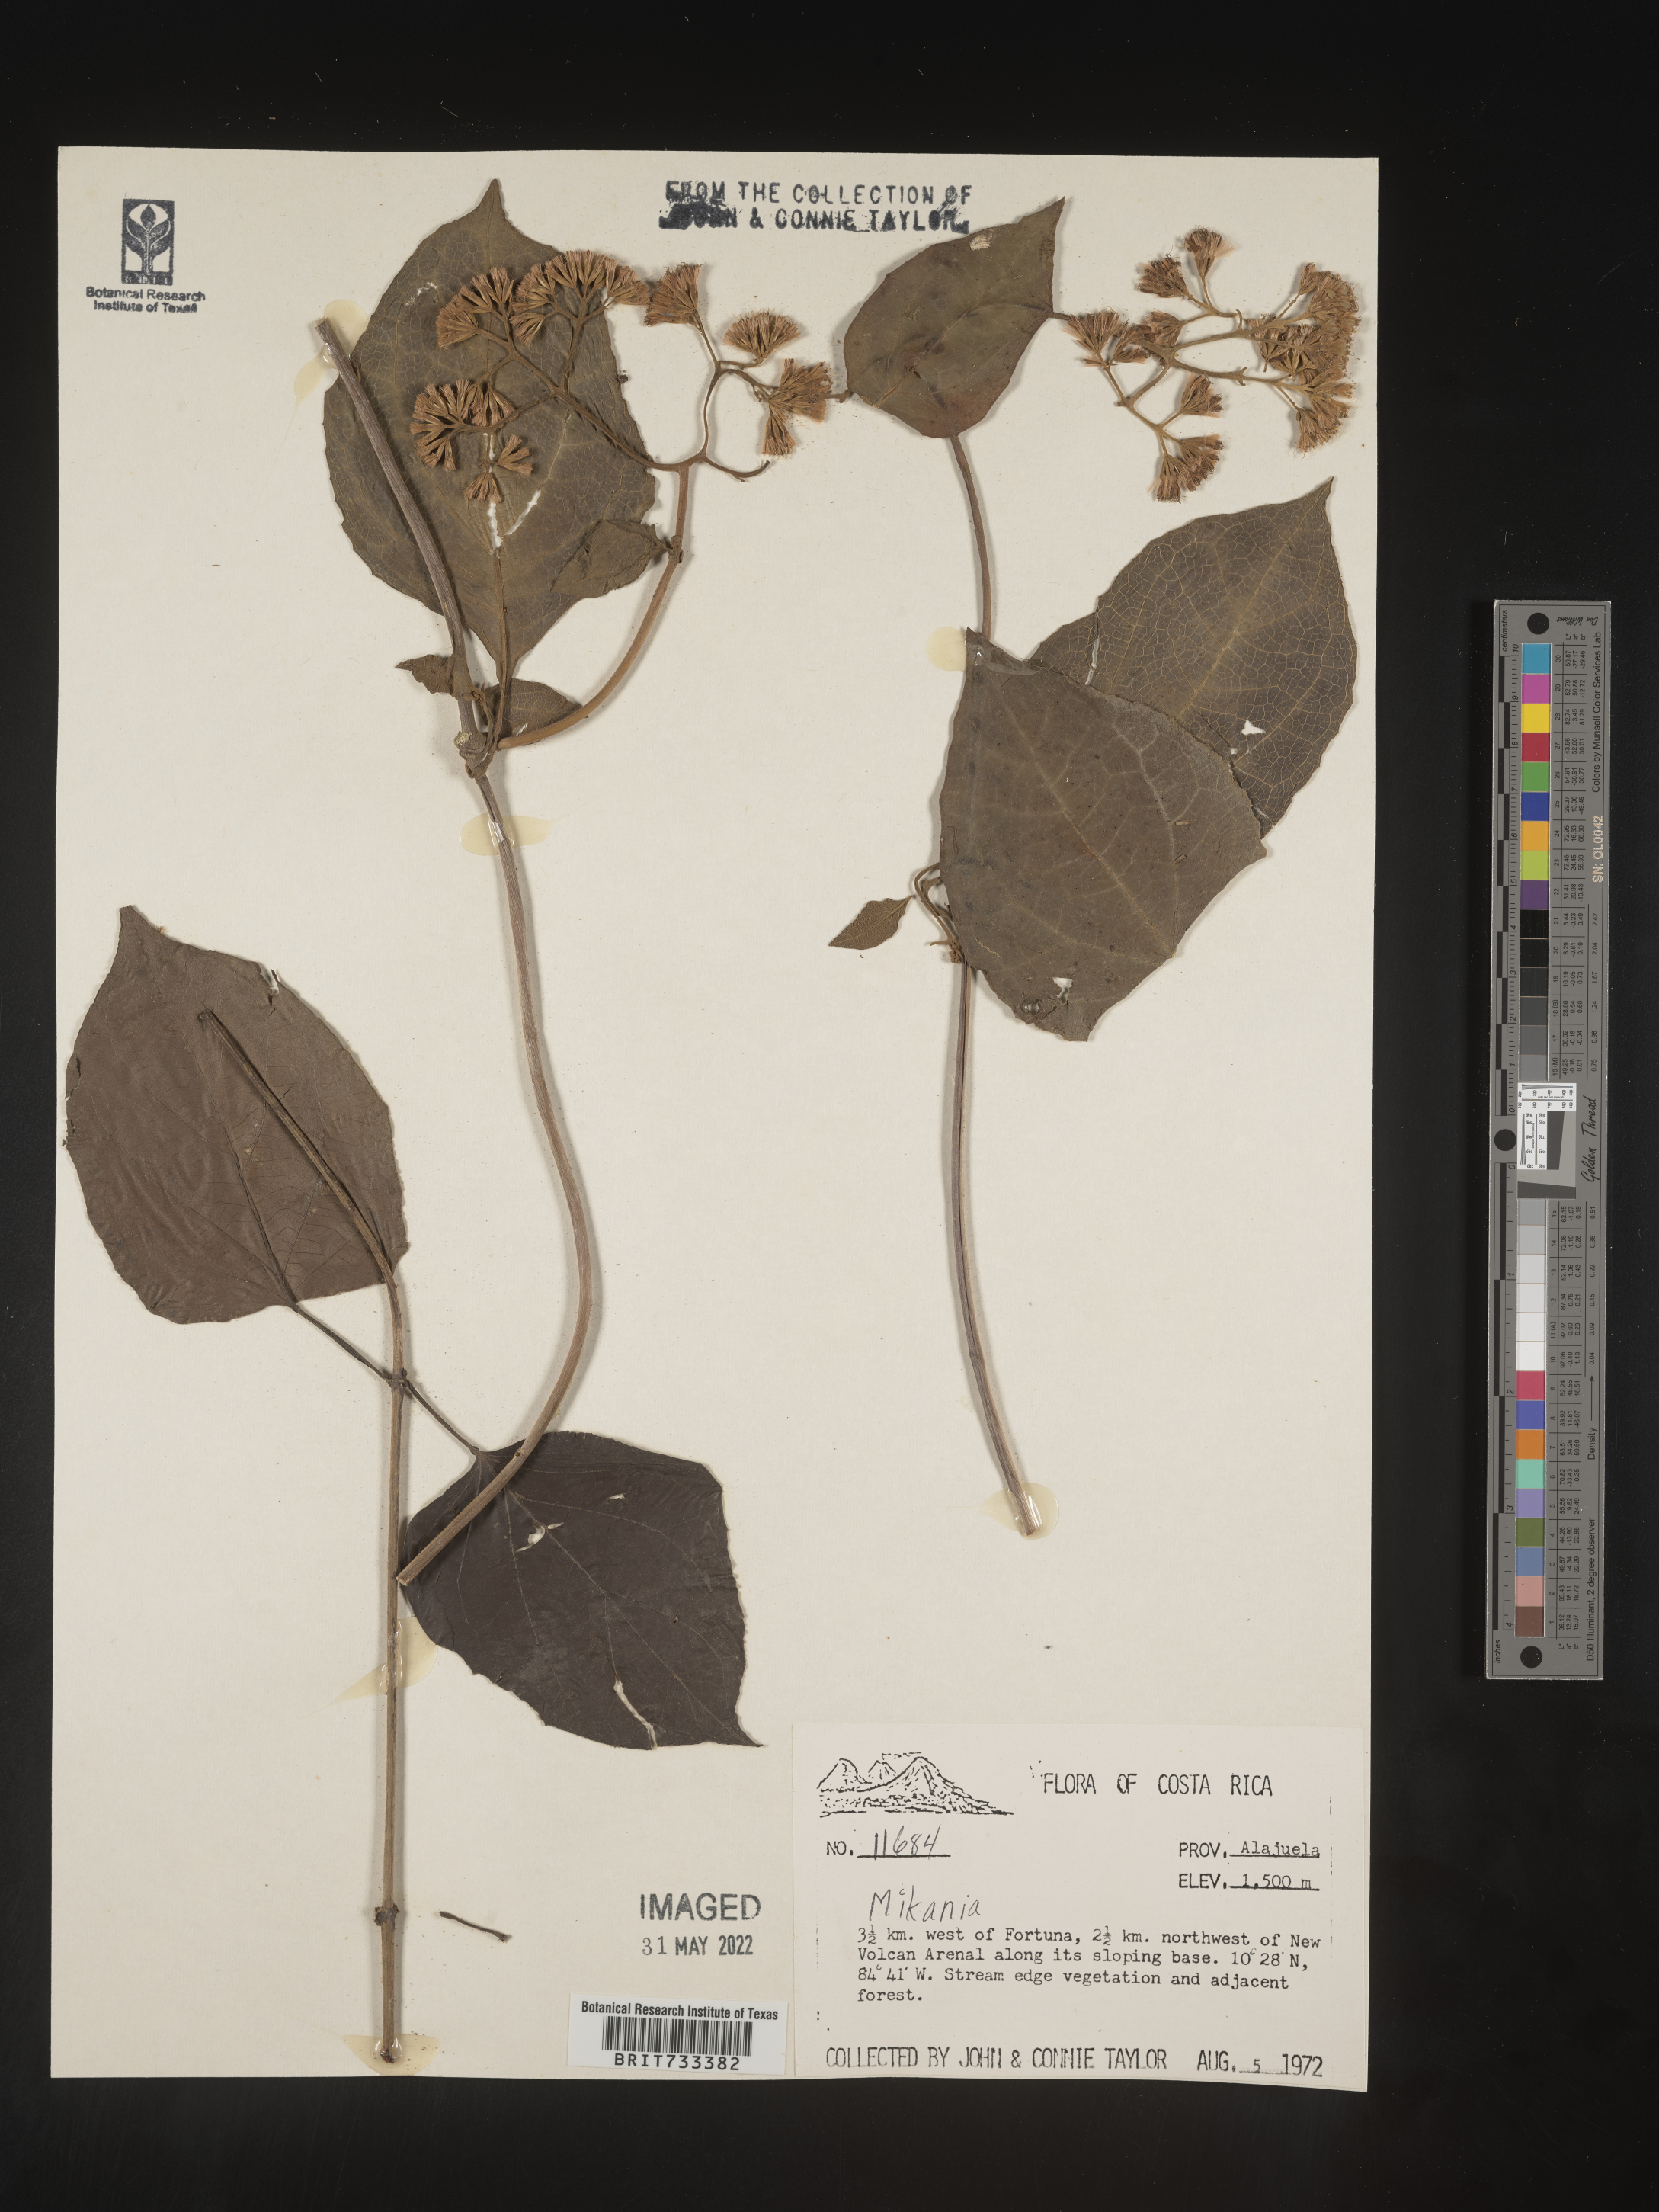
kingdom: Plantae
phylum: Tracheophyta
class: Magnoliopsida
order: Asterales
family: Asteraceae
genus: Mikania
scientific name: Mikania
